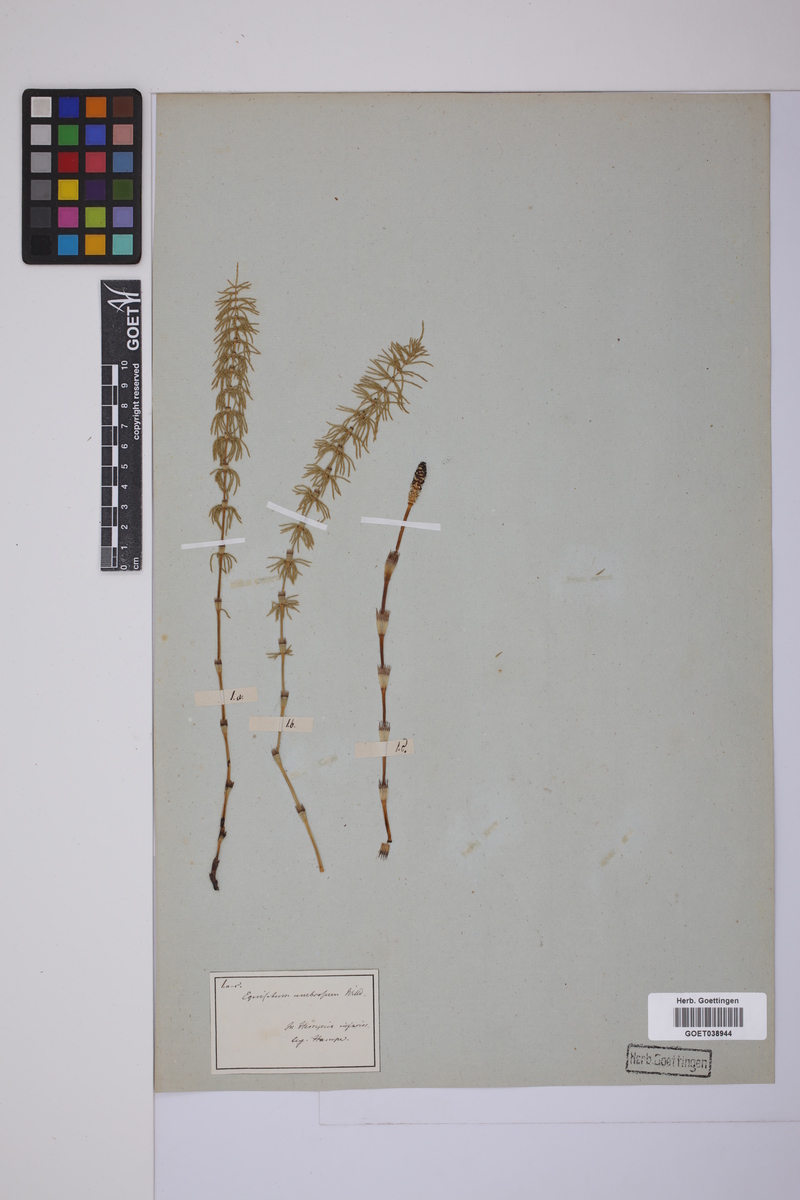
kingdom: Plantae
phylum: Tracheophyta
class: Polypodiopsida
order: Equisetales
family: Equisetaceae
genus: Equisetum
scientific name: Equisetum pratense
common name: Meadow horsetail
